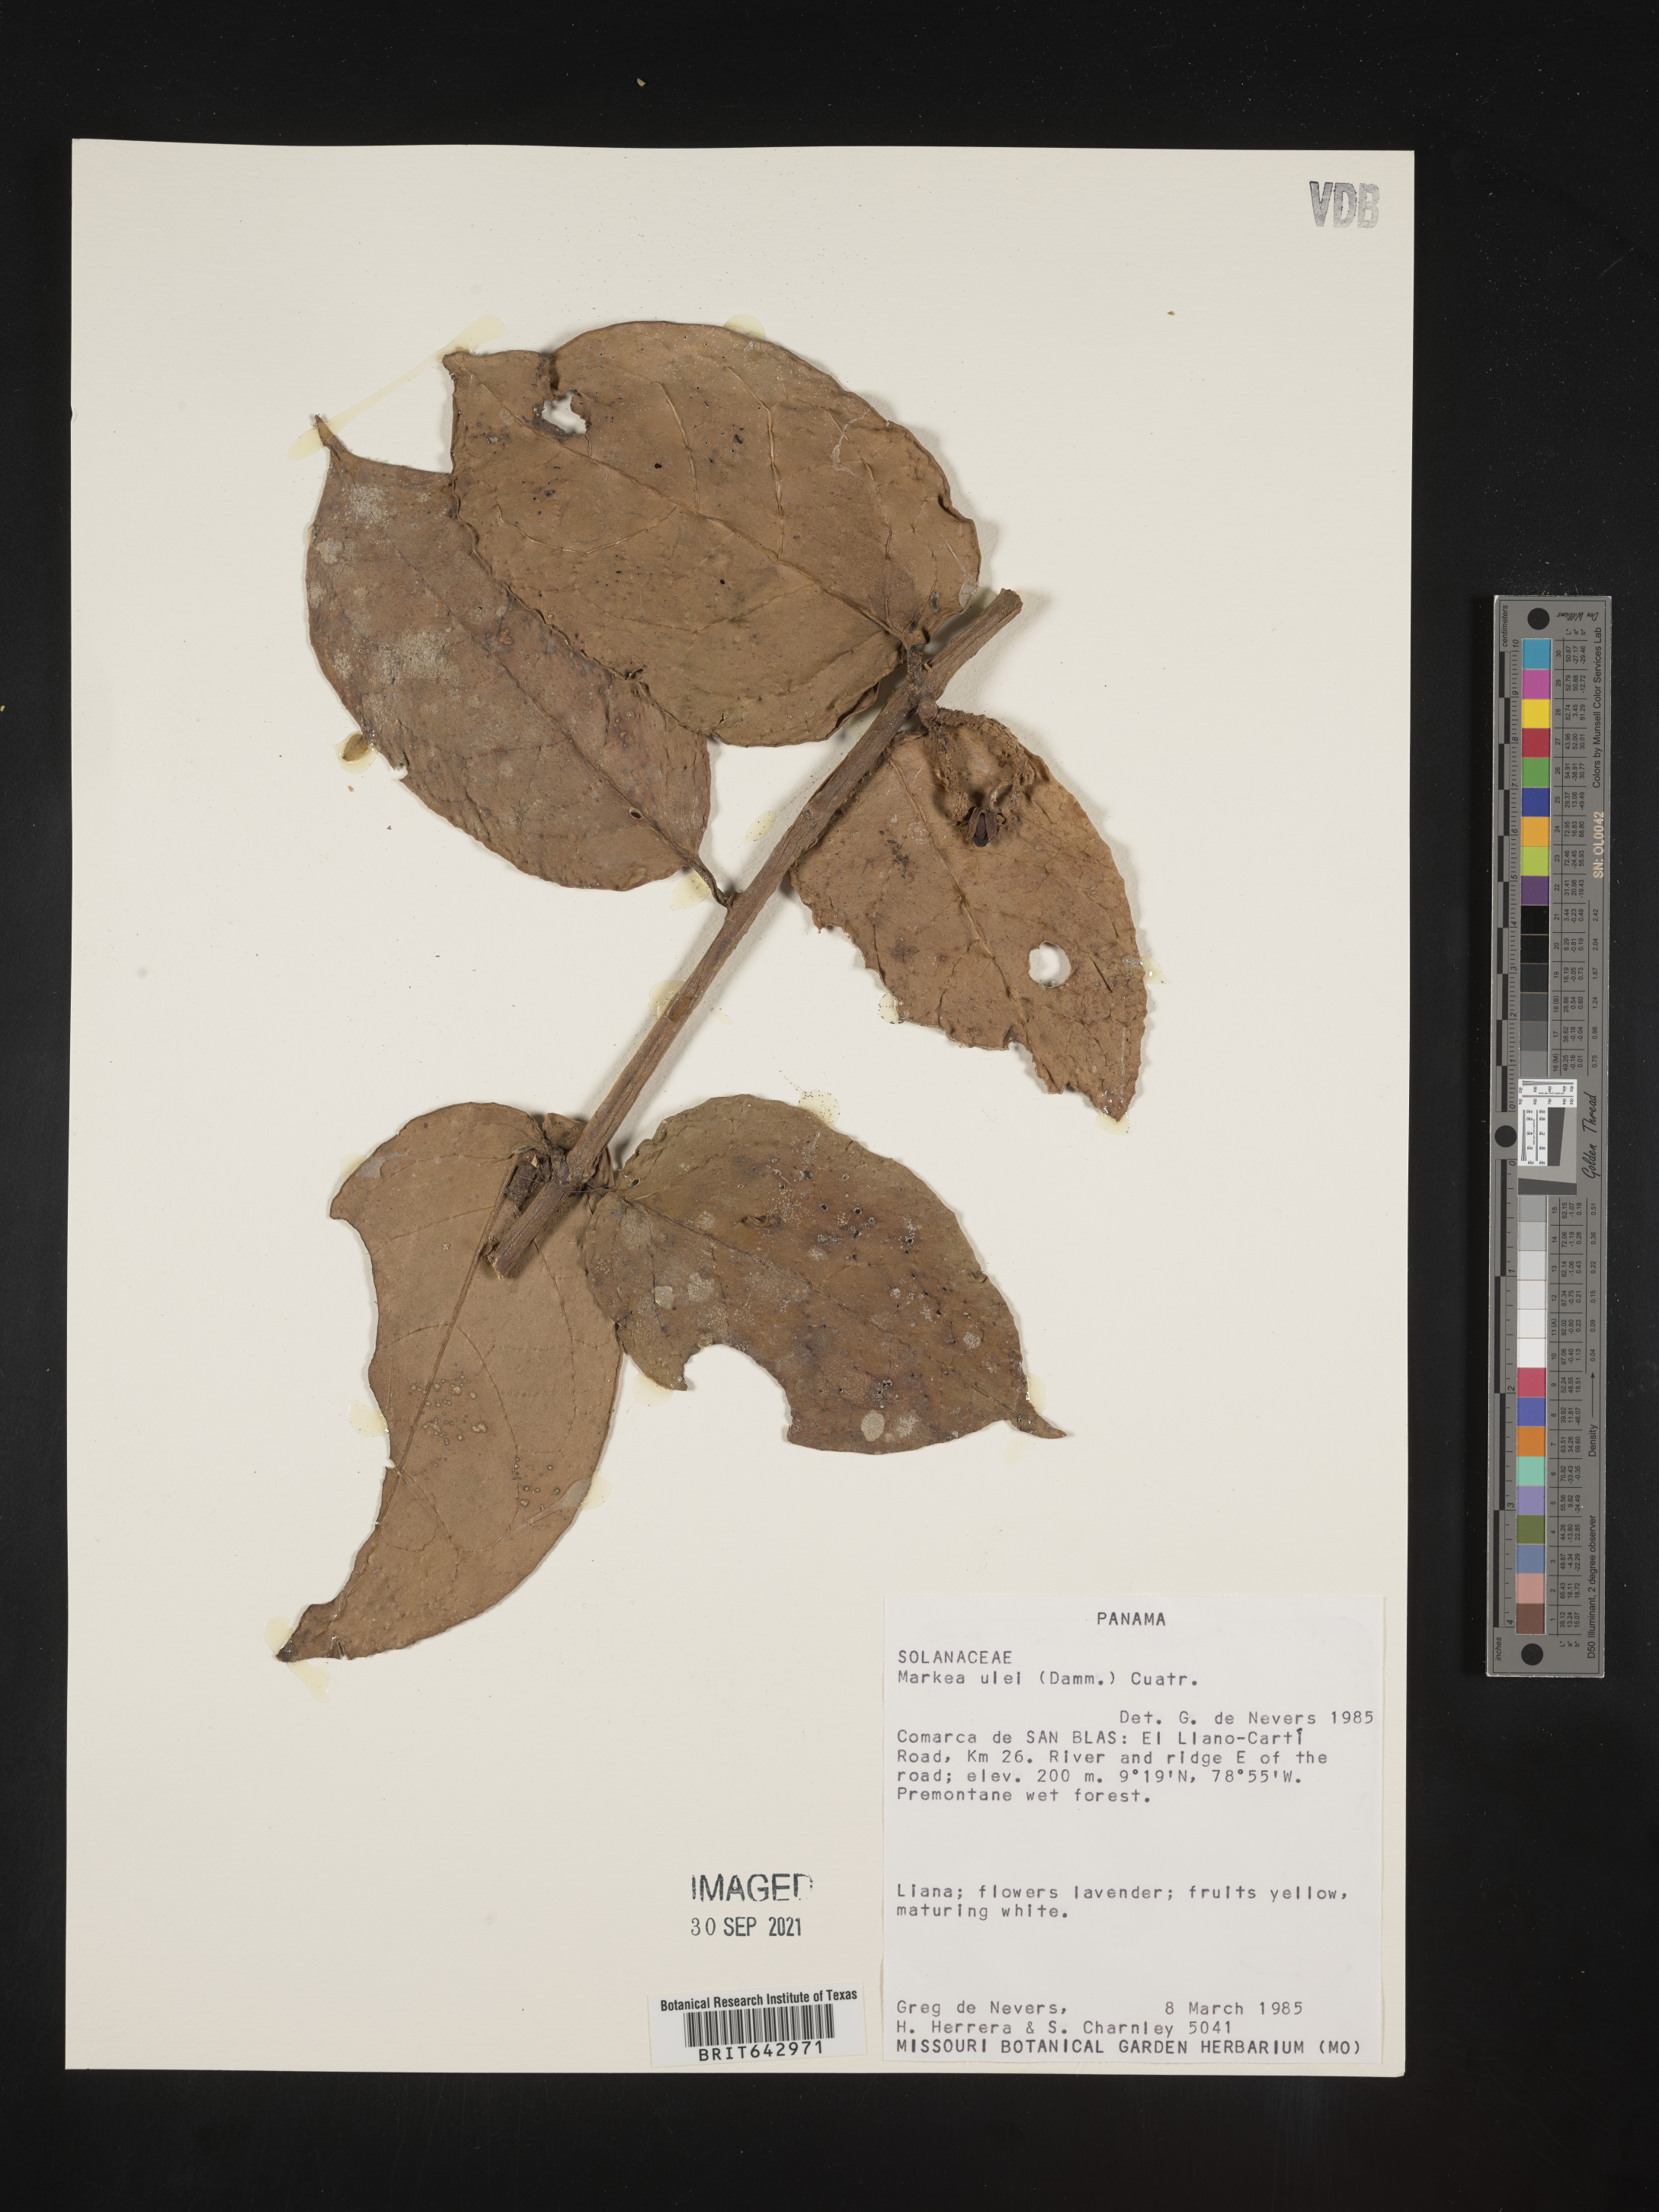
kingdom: Plantae
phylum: Tracheophyta
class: Magnoliopsida
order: Solanales
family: Solanaceae
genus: Markea
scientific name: Markea
